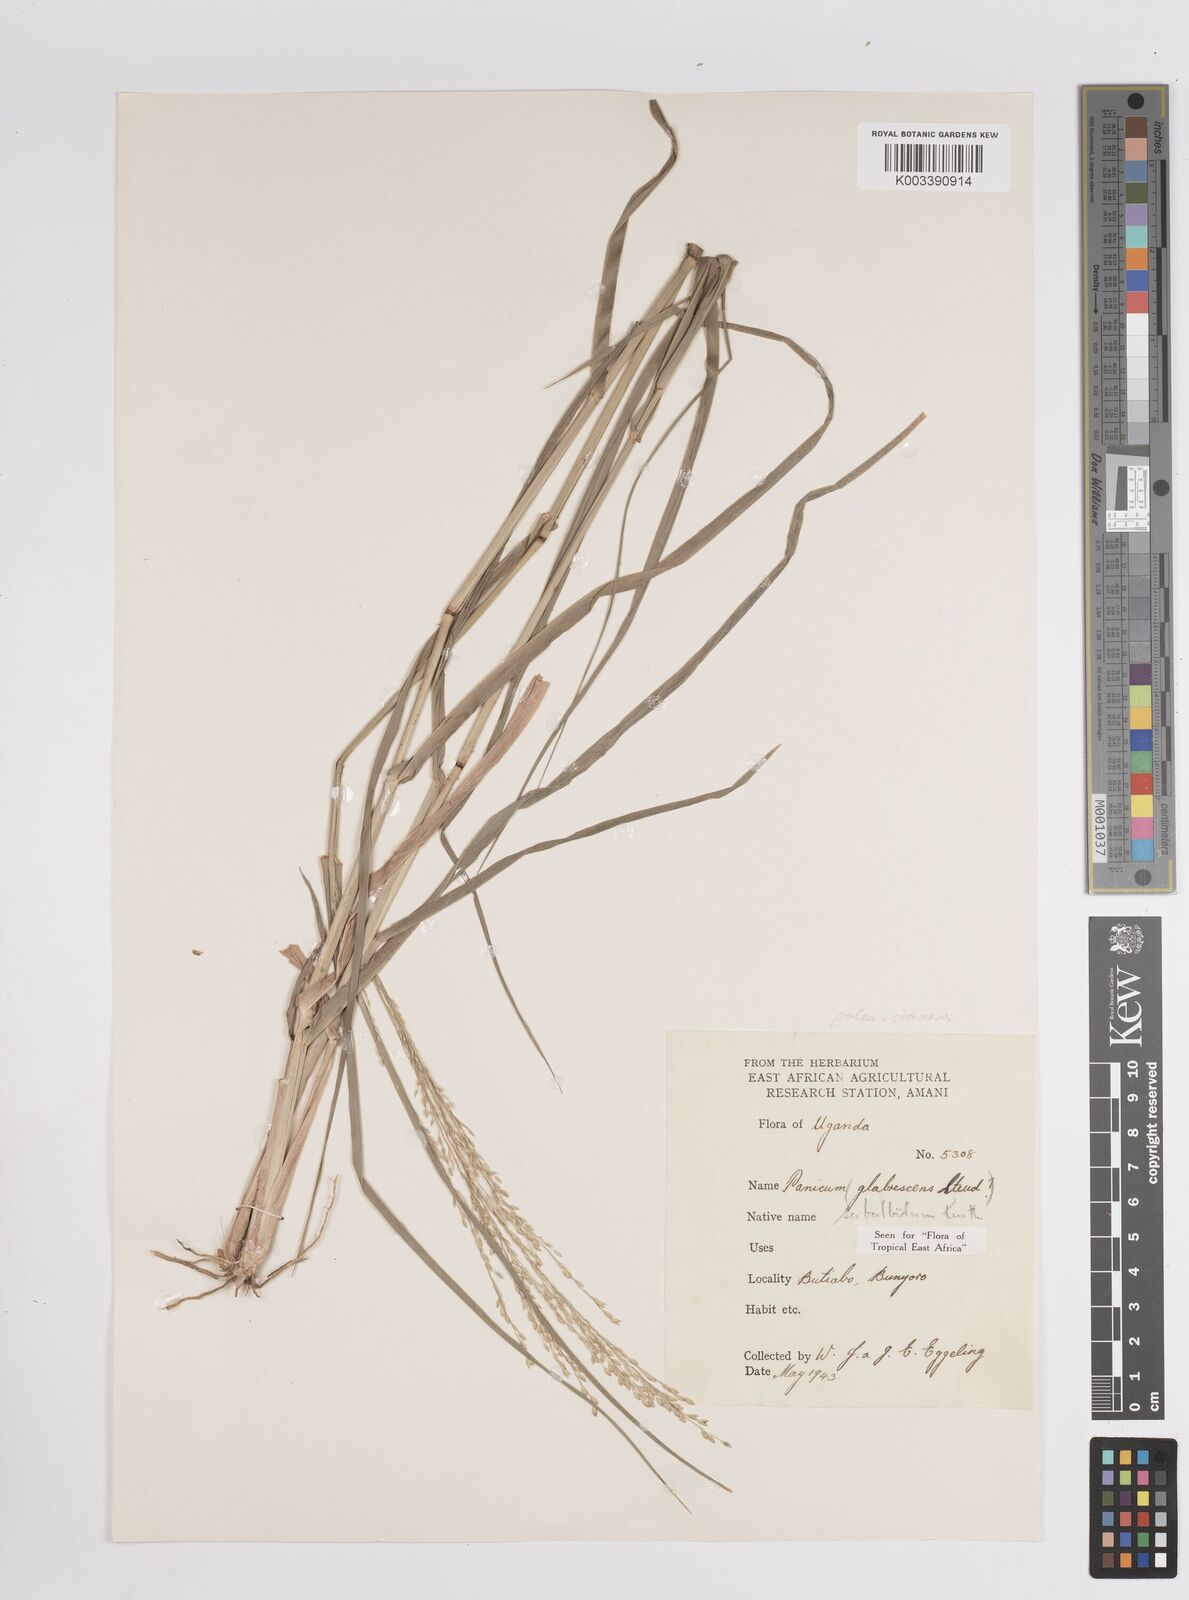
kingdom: Plantae
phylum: Tracheophyta
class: Liliopsida
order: Poales
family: Poaceae
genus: Panicum
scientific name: Panicum subalbidum
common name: Elbow buffalo grass
